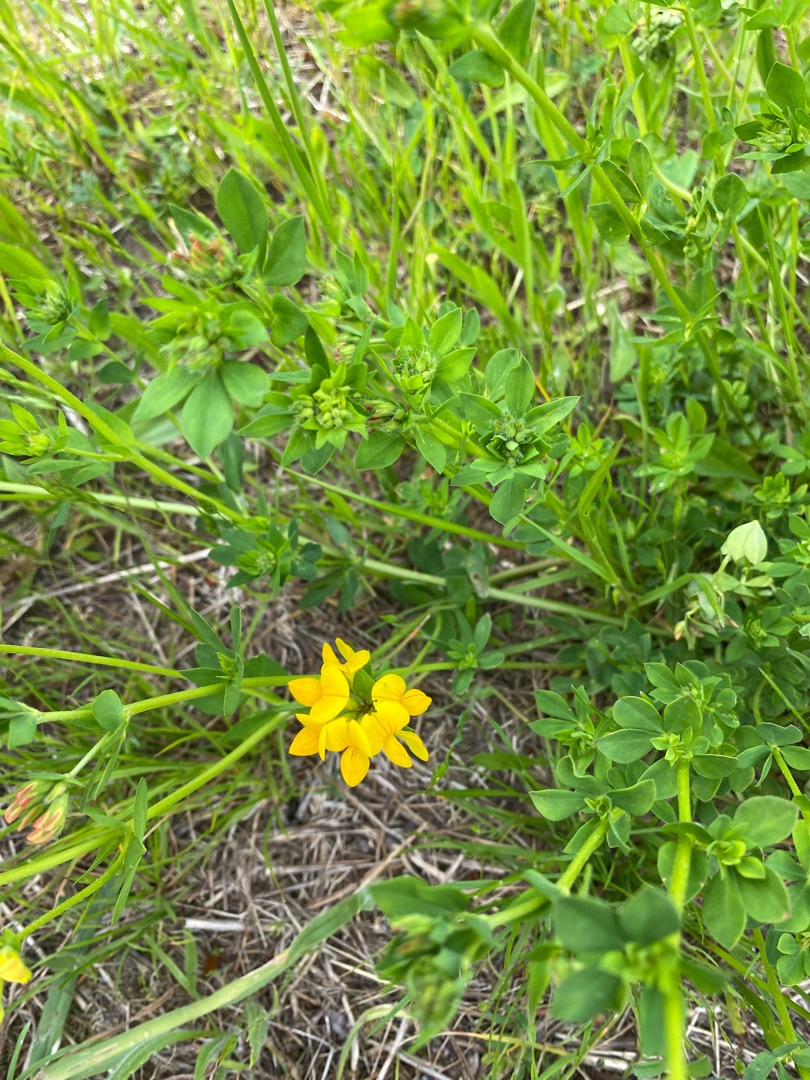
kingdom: Plantae
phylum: Tracheophyta
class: Magnoliopsida
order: Fabales
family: Fabaceae
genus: Lotus
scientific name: Lotus corniculatus
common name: Almindelig kællingetand
